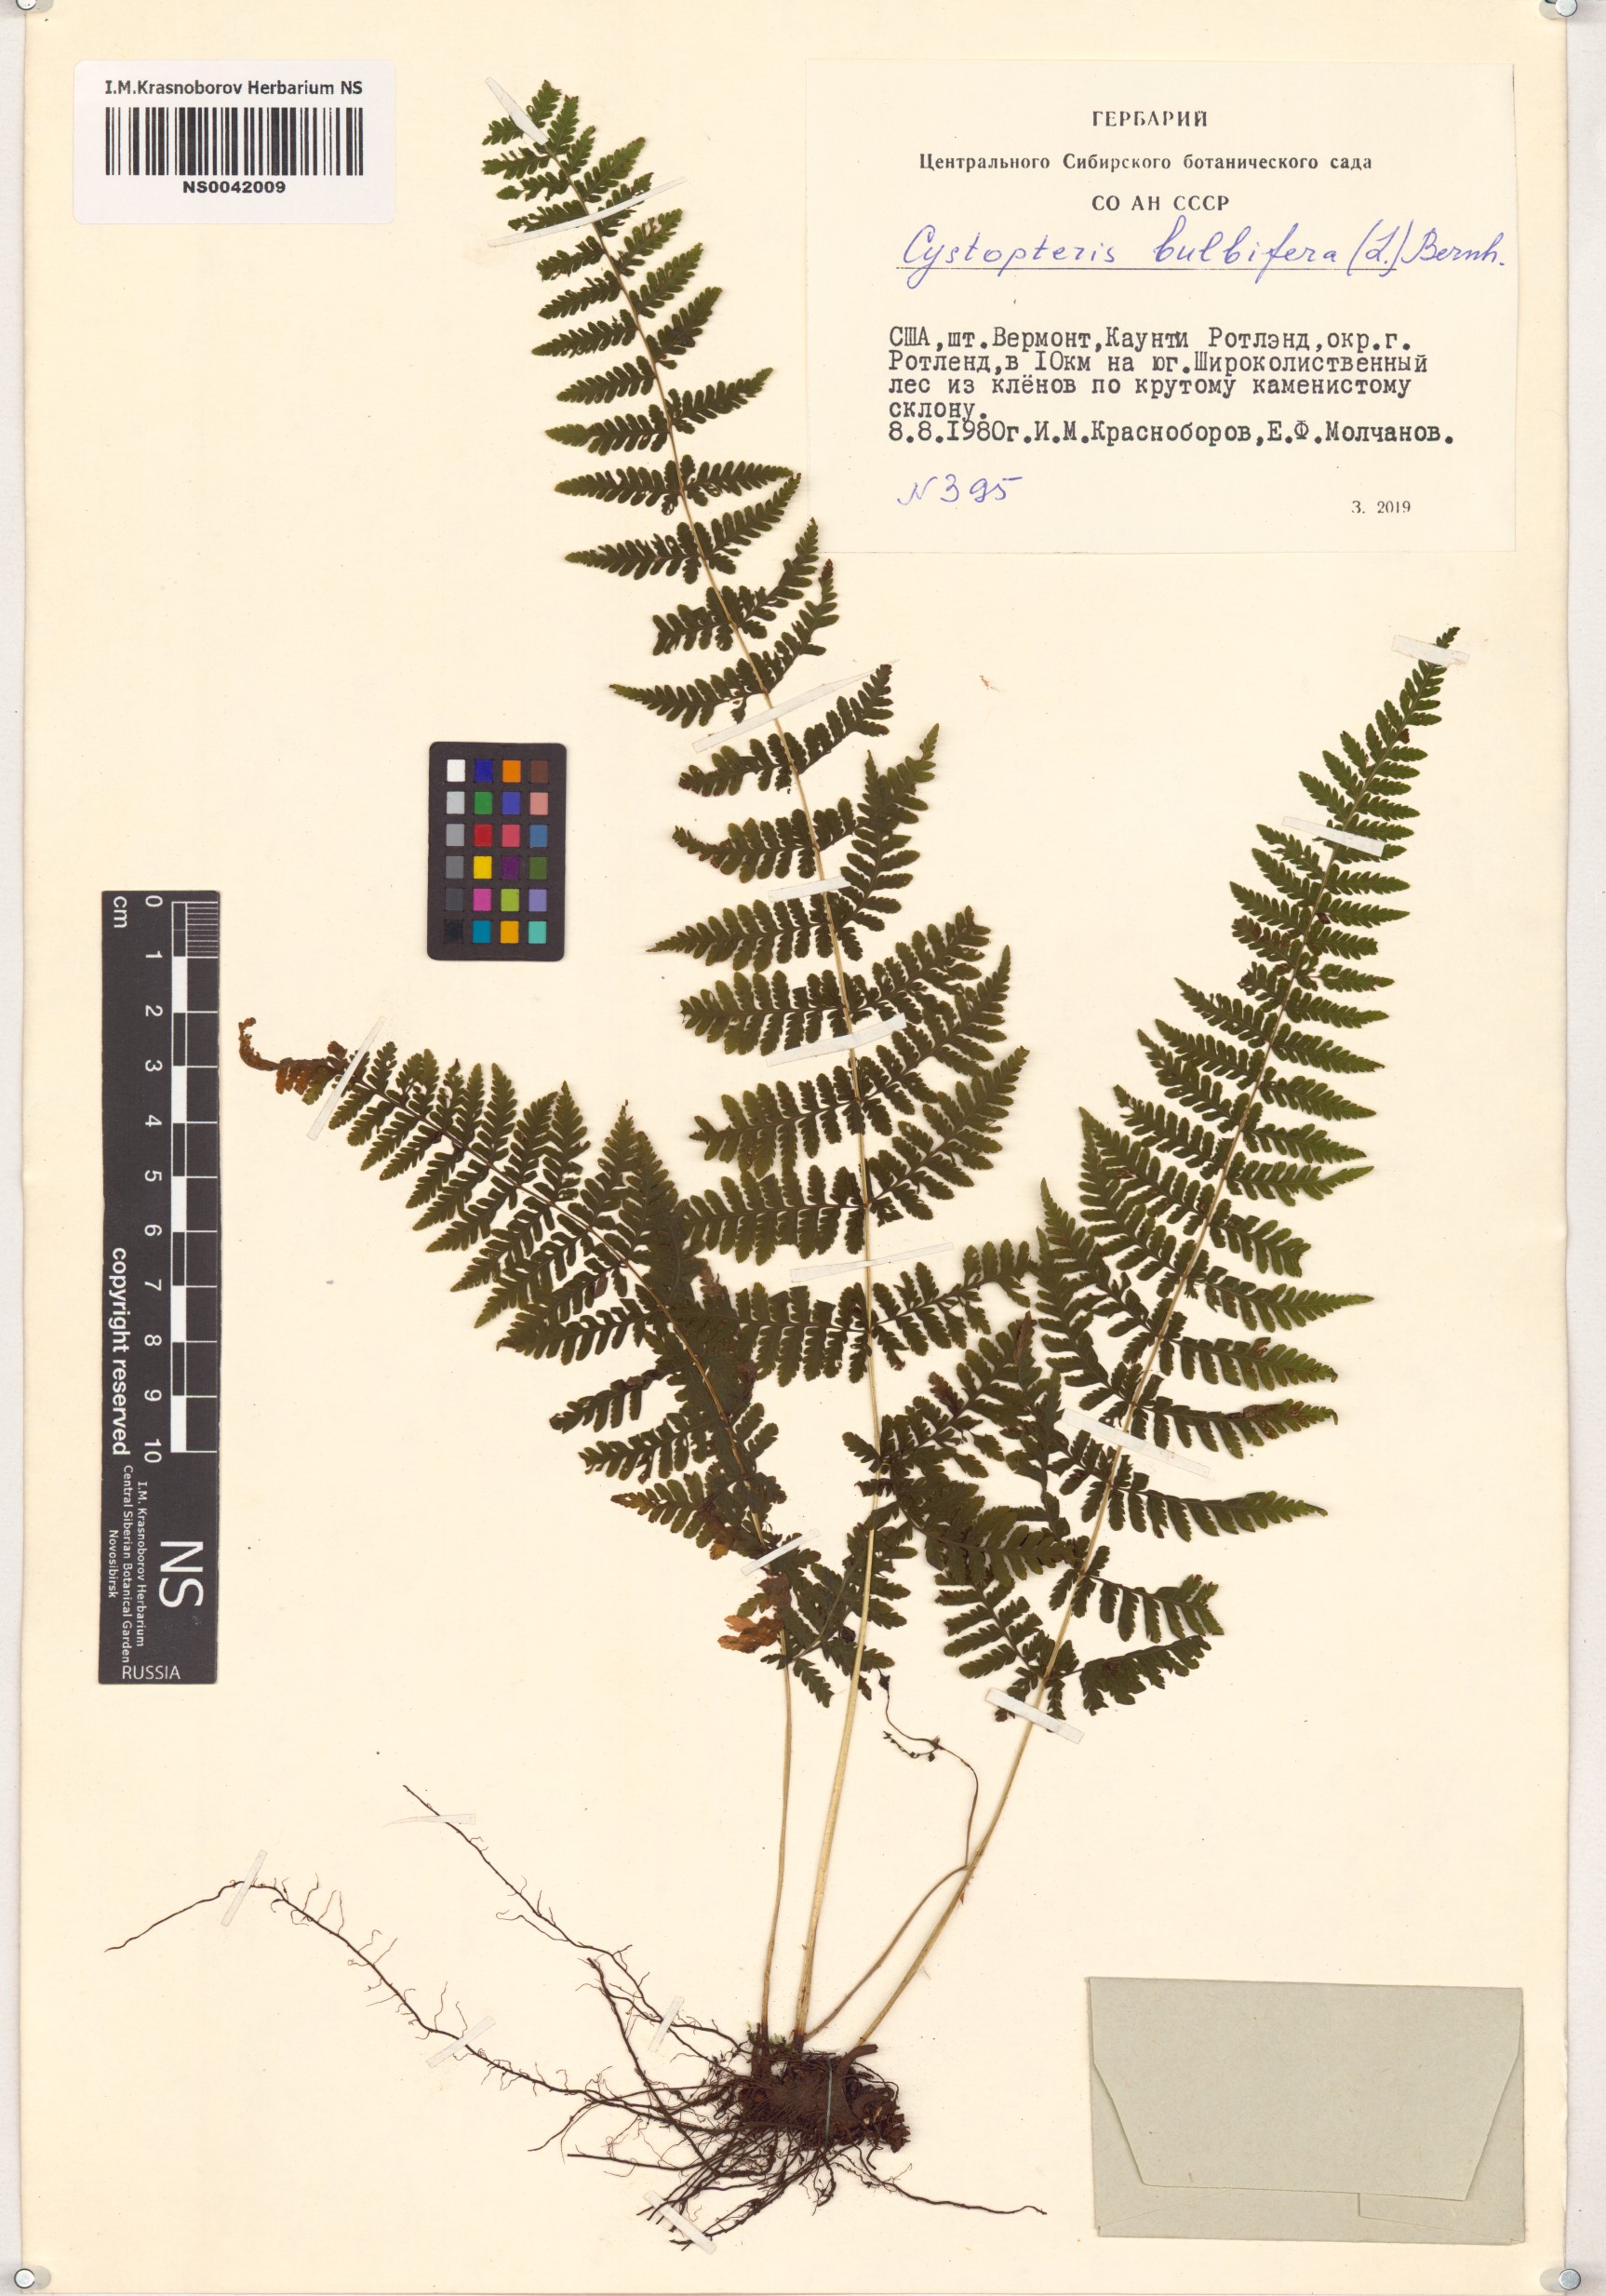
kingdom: Plantae
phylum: Tracheophyta
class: Polypodiopsida
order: Polypodiales
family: Cystopteridaceae
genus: Cystopteris
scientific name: Cystopteris bulbifera
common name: Bulblet bladder fern
